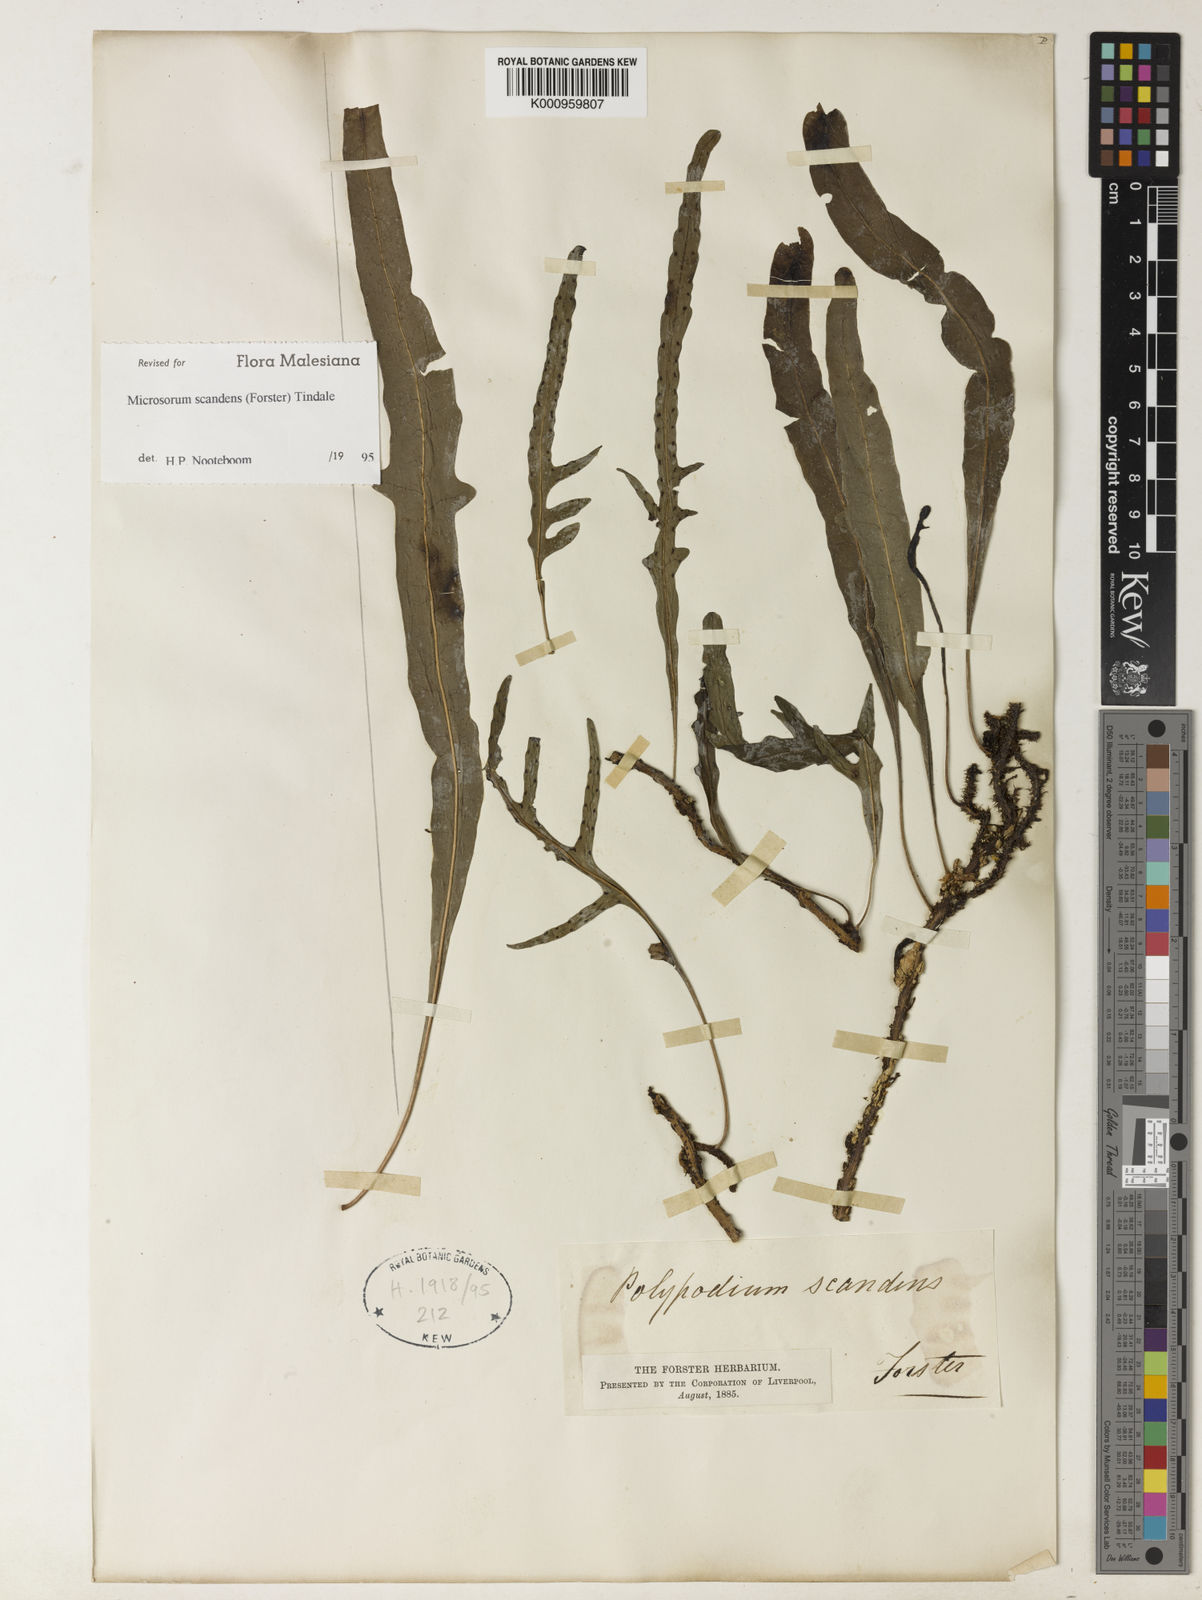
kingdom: Plantae
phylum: Tracheophyta
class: Polypodiopsida
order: Polypodiales
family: Polypodiaceae
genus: Lecanopteris
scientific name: Lecanopteris scandens
